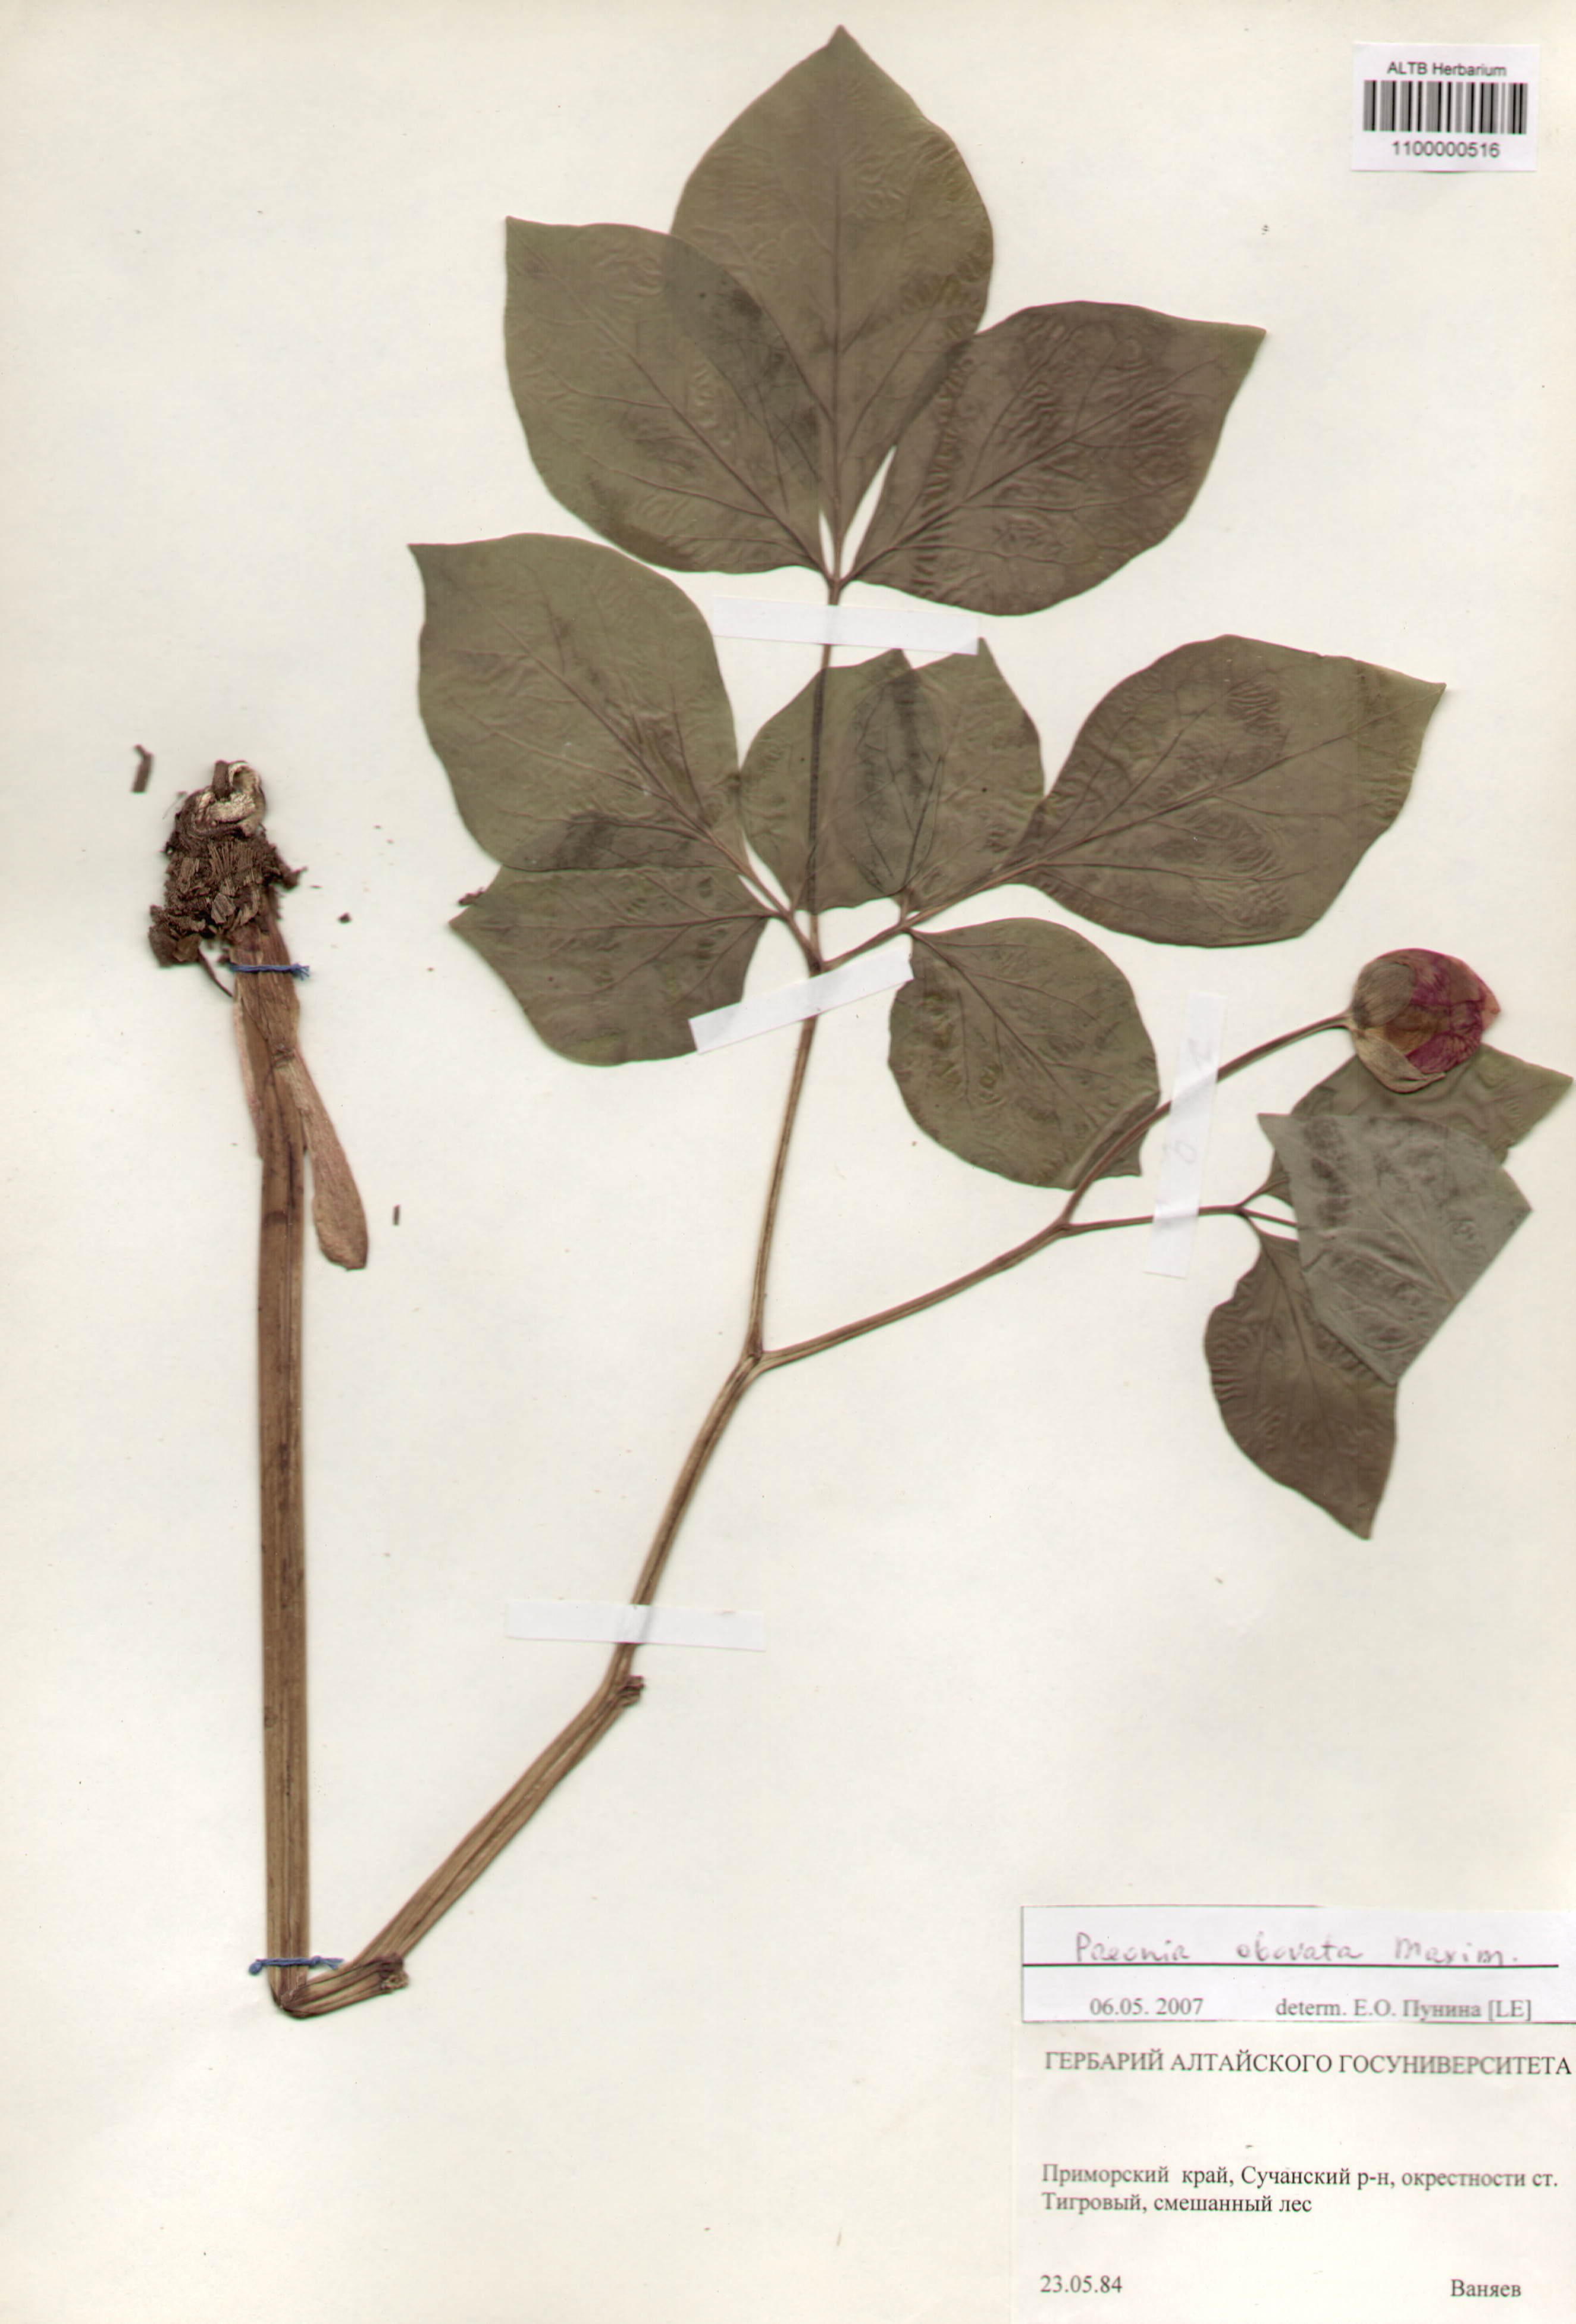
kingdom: Plantae
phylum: Tracheophyta
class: Magnoliopsida
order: Saxifragales
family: Paeoniaceae
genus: Paeonia
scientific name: Paeonia obovata
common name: Chinese peony
